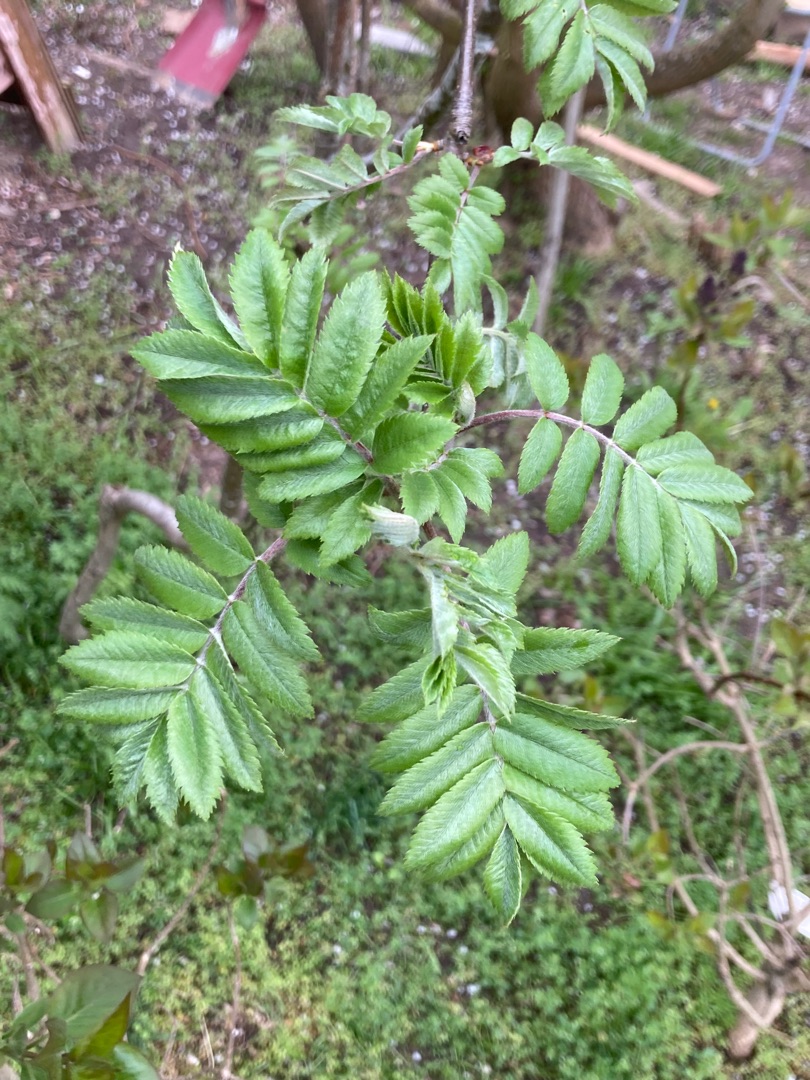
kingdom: Plantae
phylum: Tracheophyta
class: Magnoliopsida
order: Rosales
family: Rosaceae
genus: Sorbus
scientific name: Sorbus aucuparia
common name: Almindelig røn
